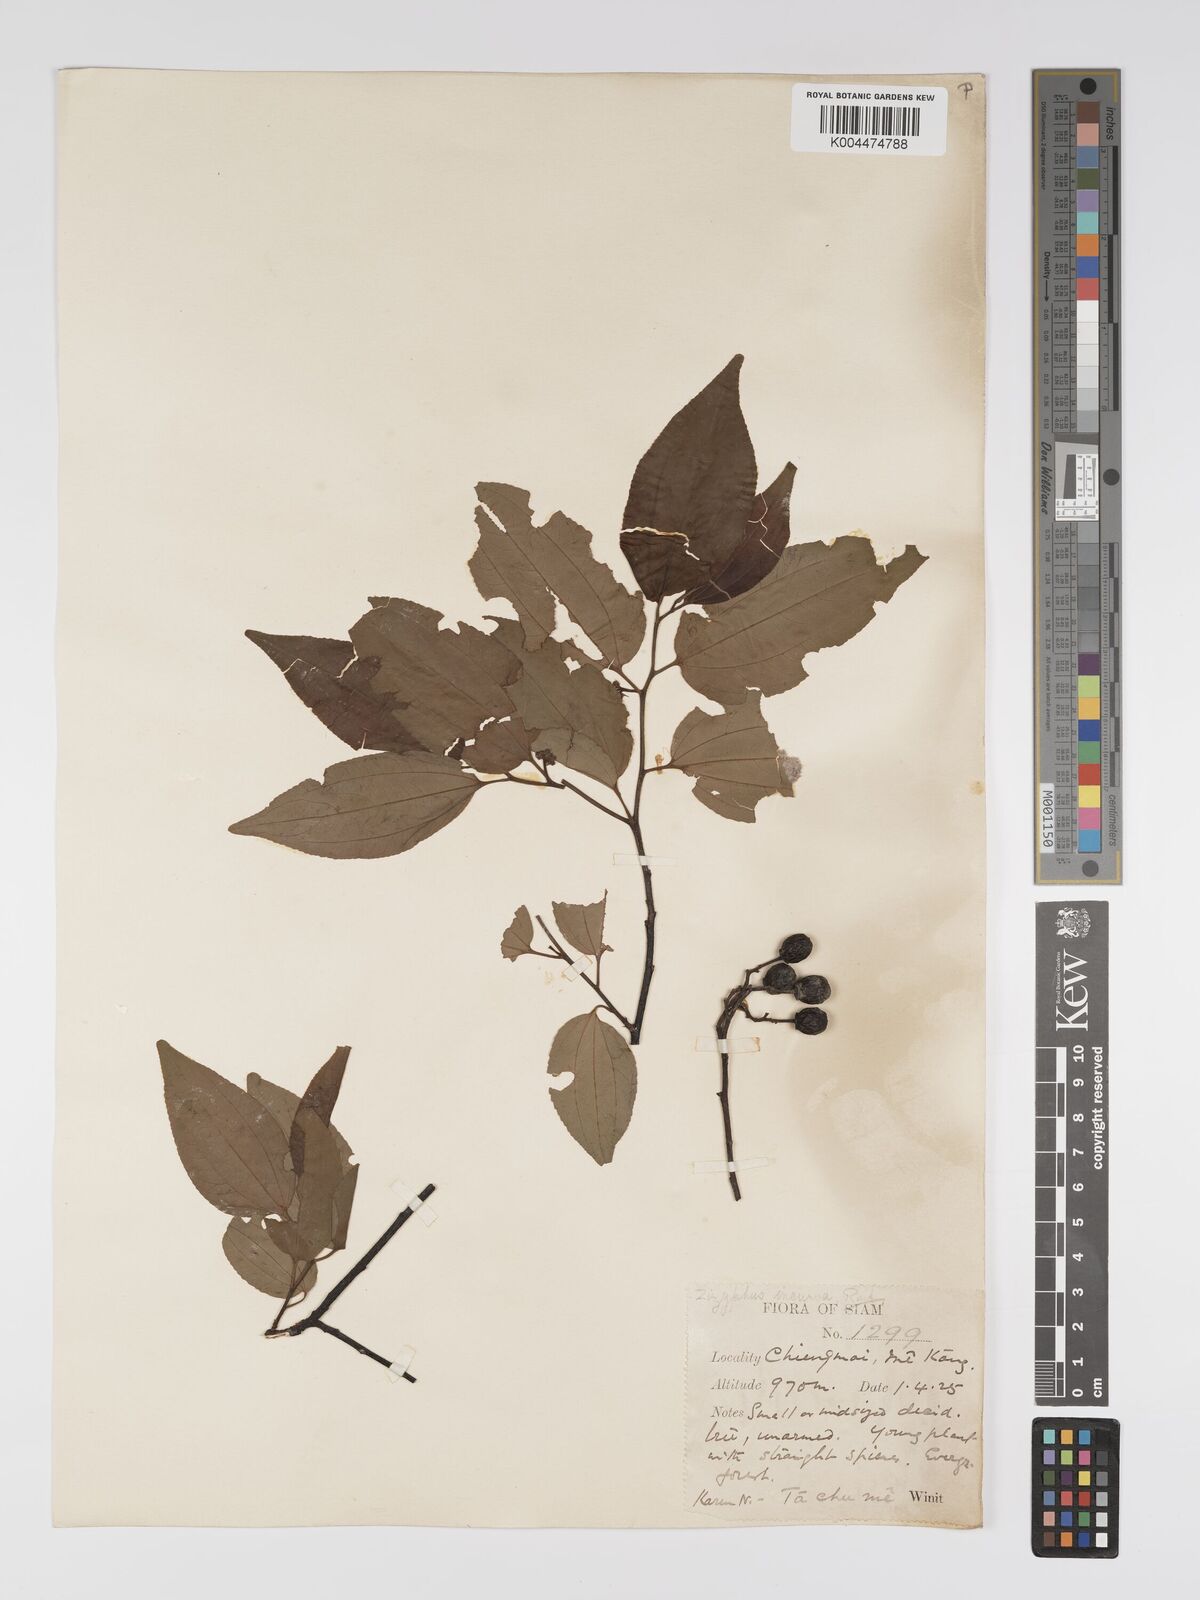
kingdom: Plantae
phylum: Tracheophyta
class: Magnoliopsida
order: Rosales
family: Rhamnaceae
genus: Ziziphus
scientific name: Ziziphus incurva
